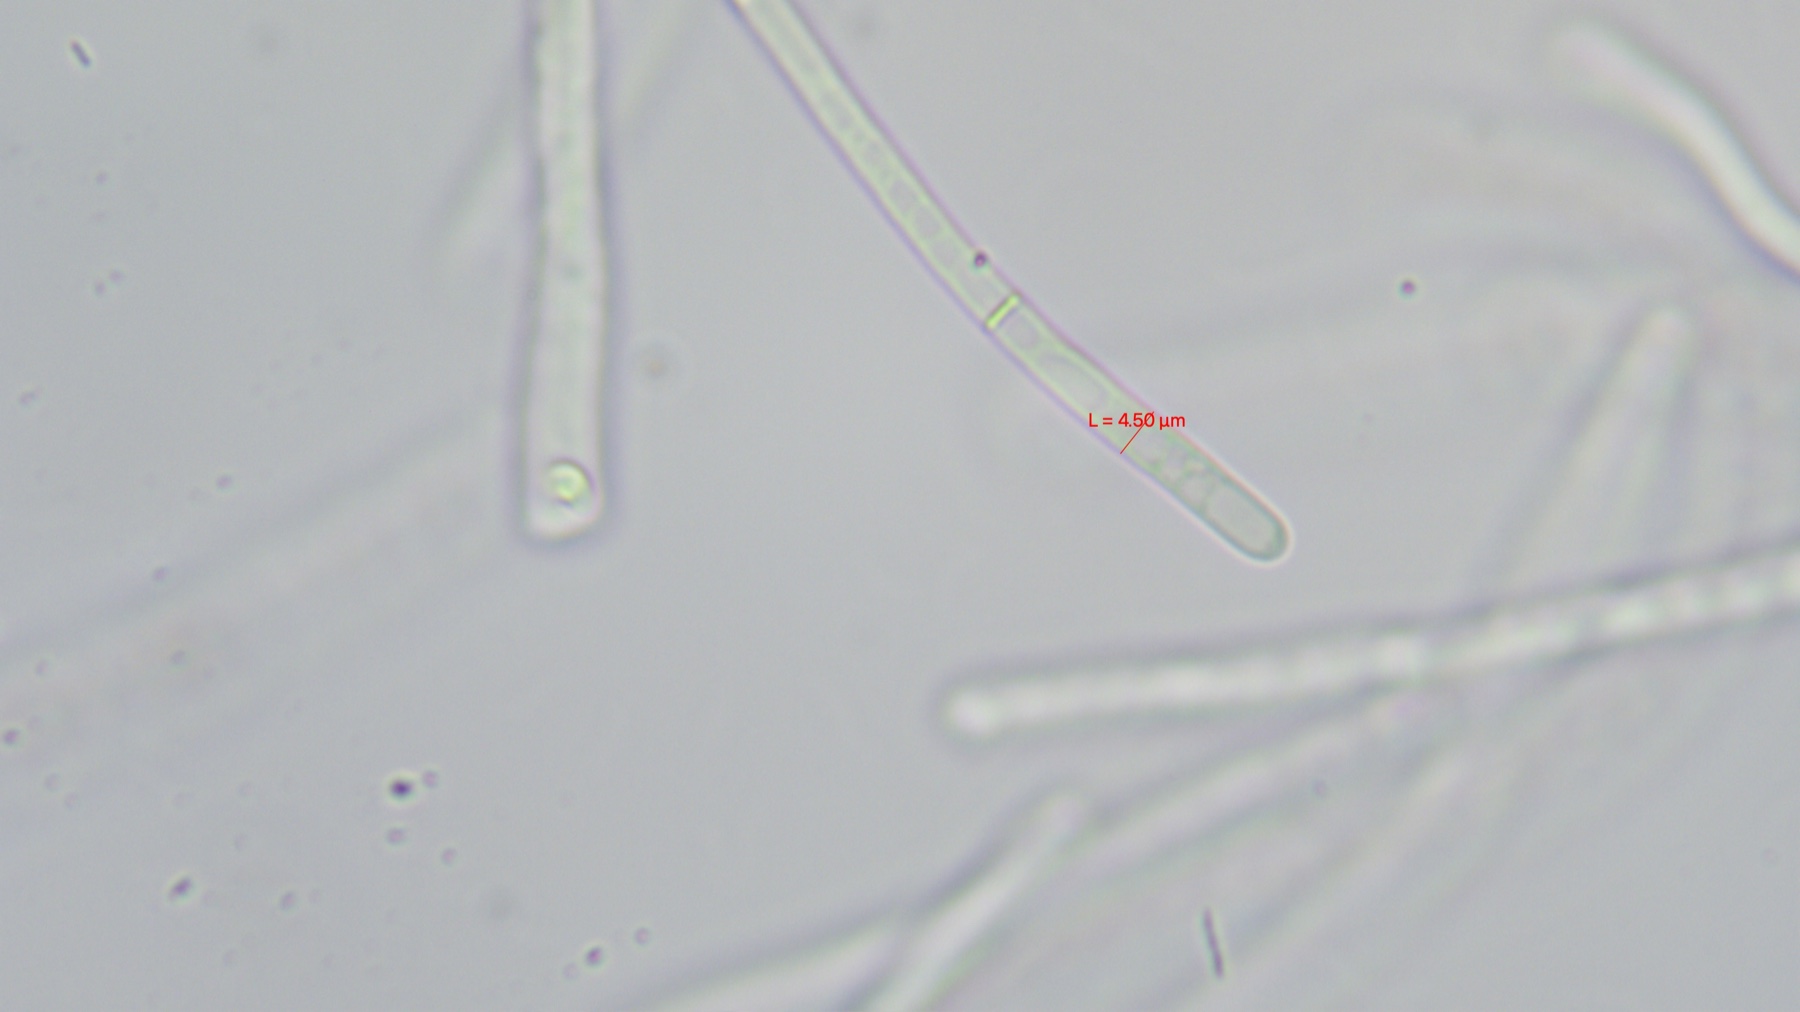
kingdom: Fungi
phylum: Basidiomycota
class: Agaricomycetes
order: Agaricales
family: Cortinariaceae
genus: Cortinarius
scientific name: Cortinarius livido-ochraceus
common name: halvhøj slørhat
